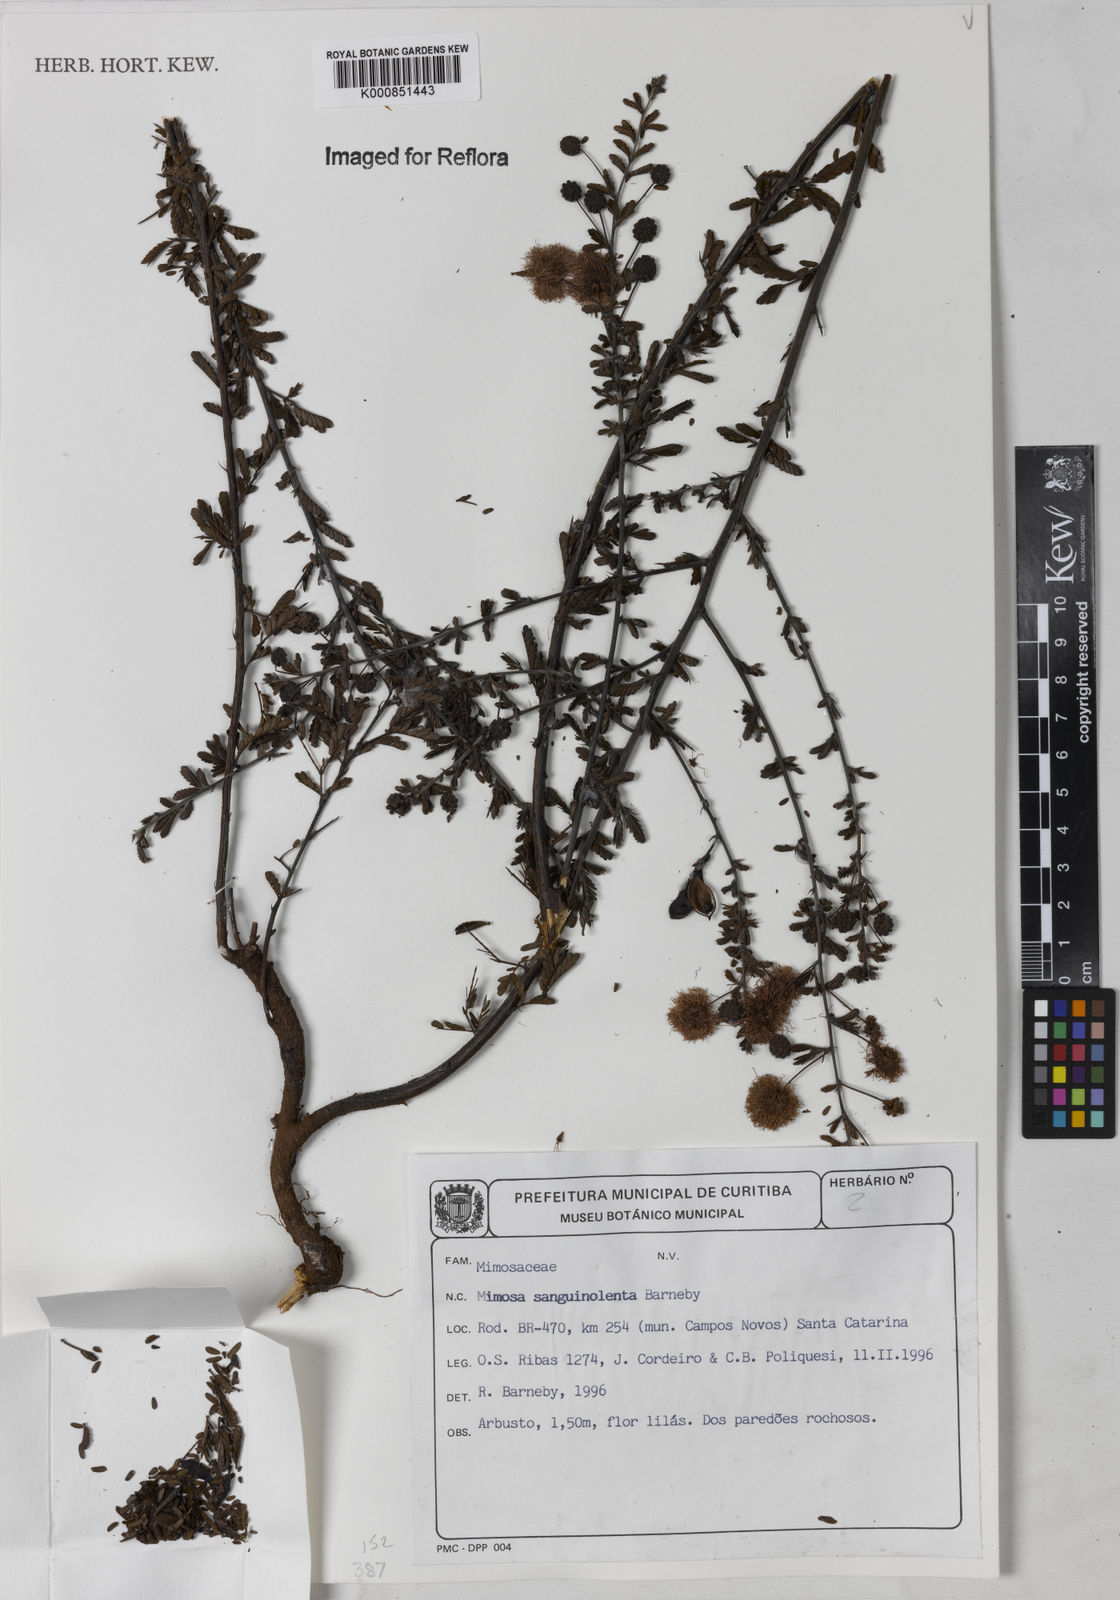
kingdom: Plantae
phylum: Tracheophyta
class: Magnoliopsida
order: Fabales
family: Fabaceae
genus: Mimosa
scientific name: Mimosa sanguinolenta
